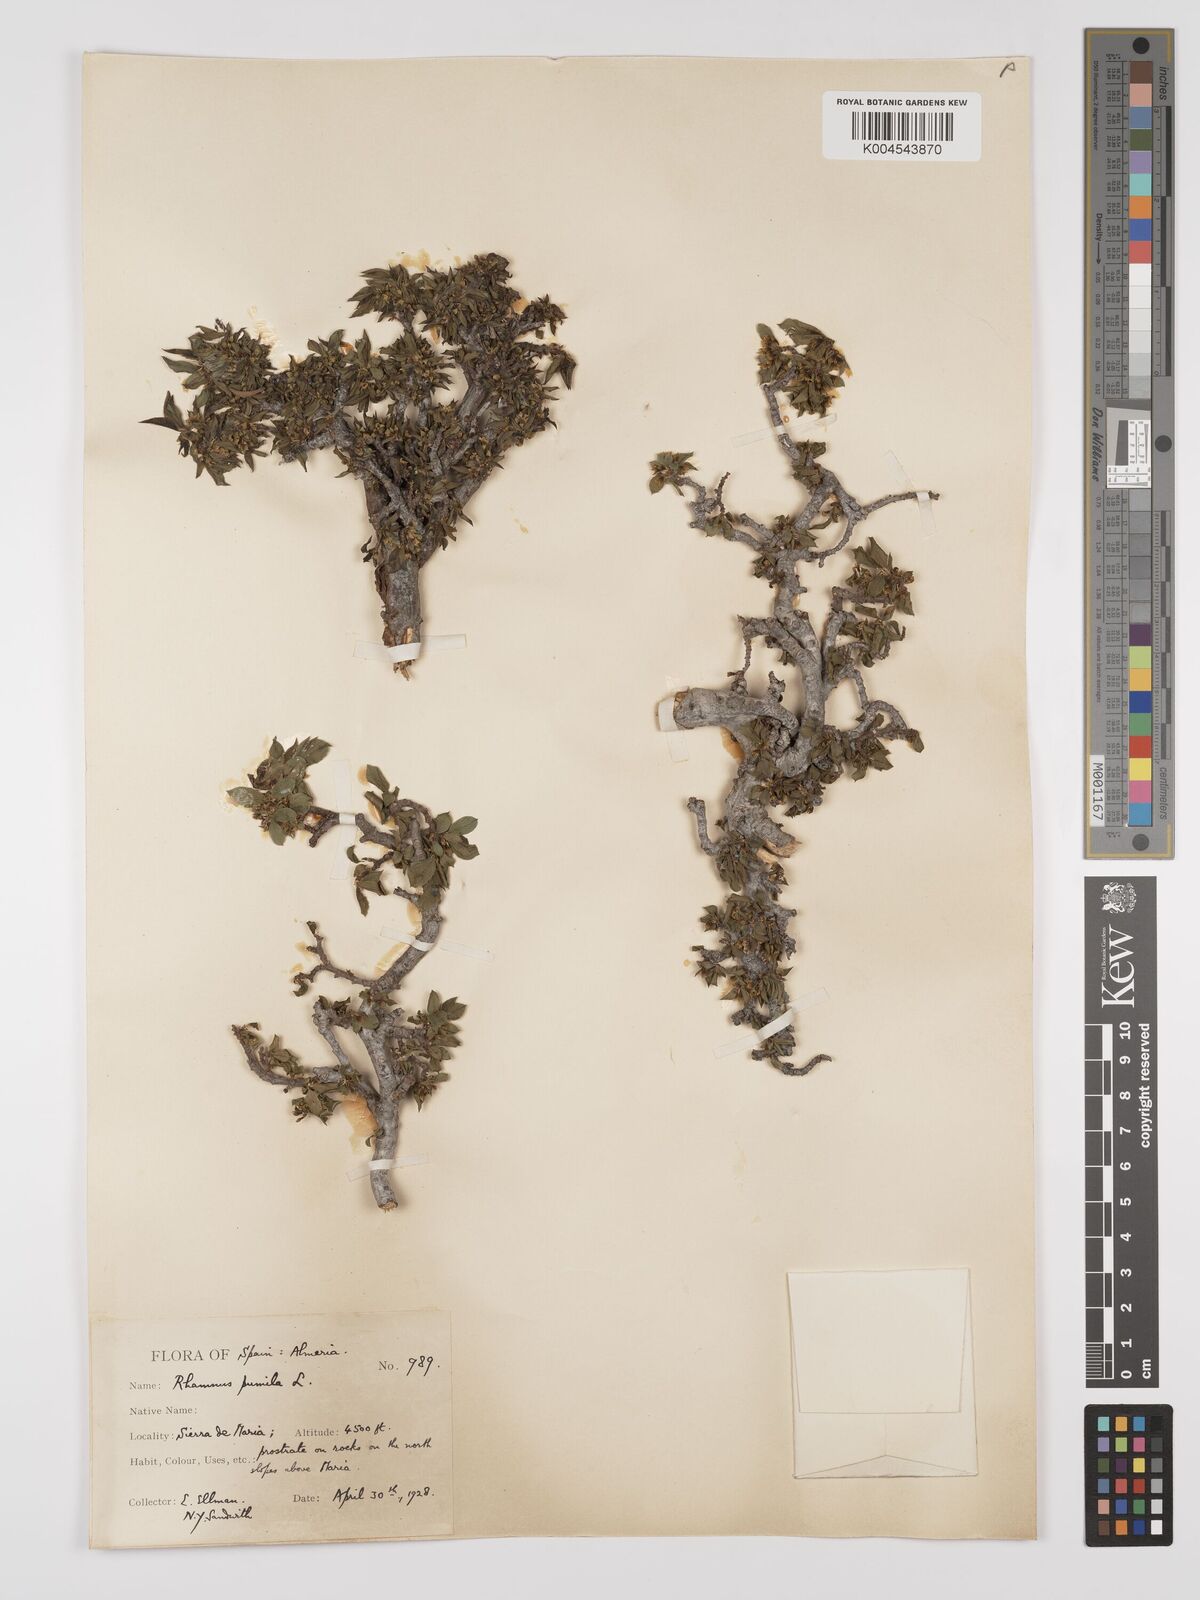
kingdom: Plantae
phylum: Tracheophyta
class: Magnoliopsida
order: Rosales
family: Rhamnaceae
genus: Rhamnus
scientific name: Rhamnus
